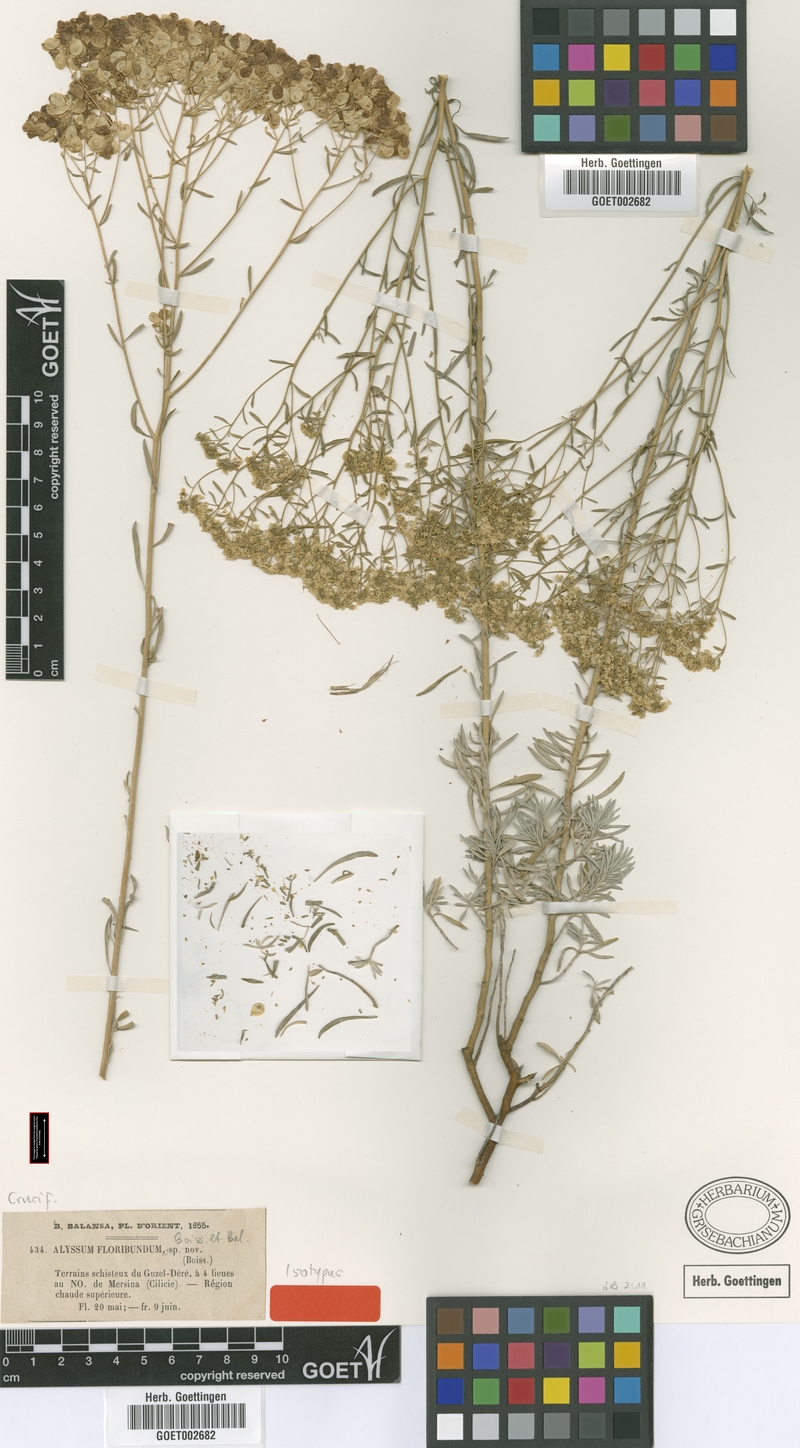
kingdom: Plantae
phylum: Tracheophyta
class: Magnoliopsida
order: Brassicales
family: Brassicaceae
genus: Odontarrhena
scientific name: Odontarrhena floribunda
